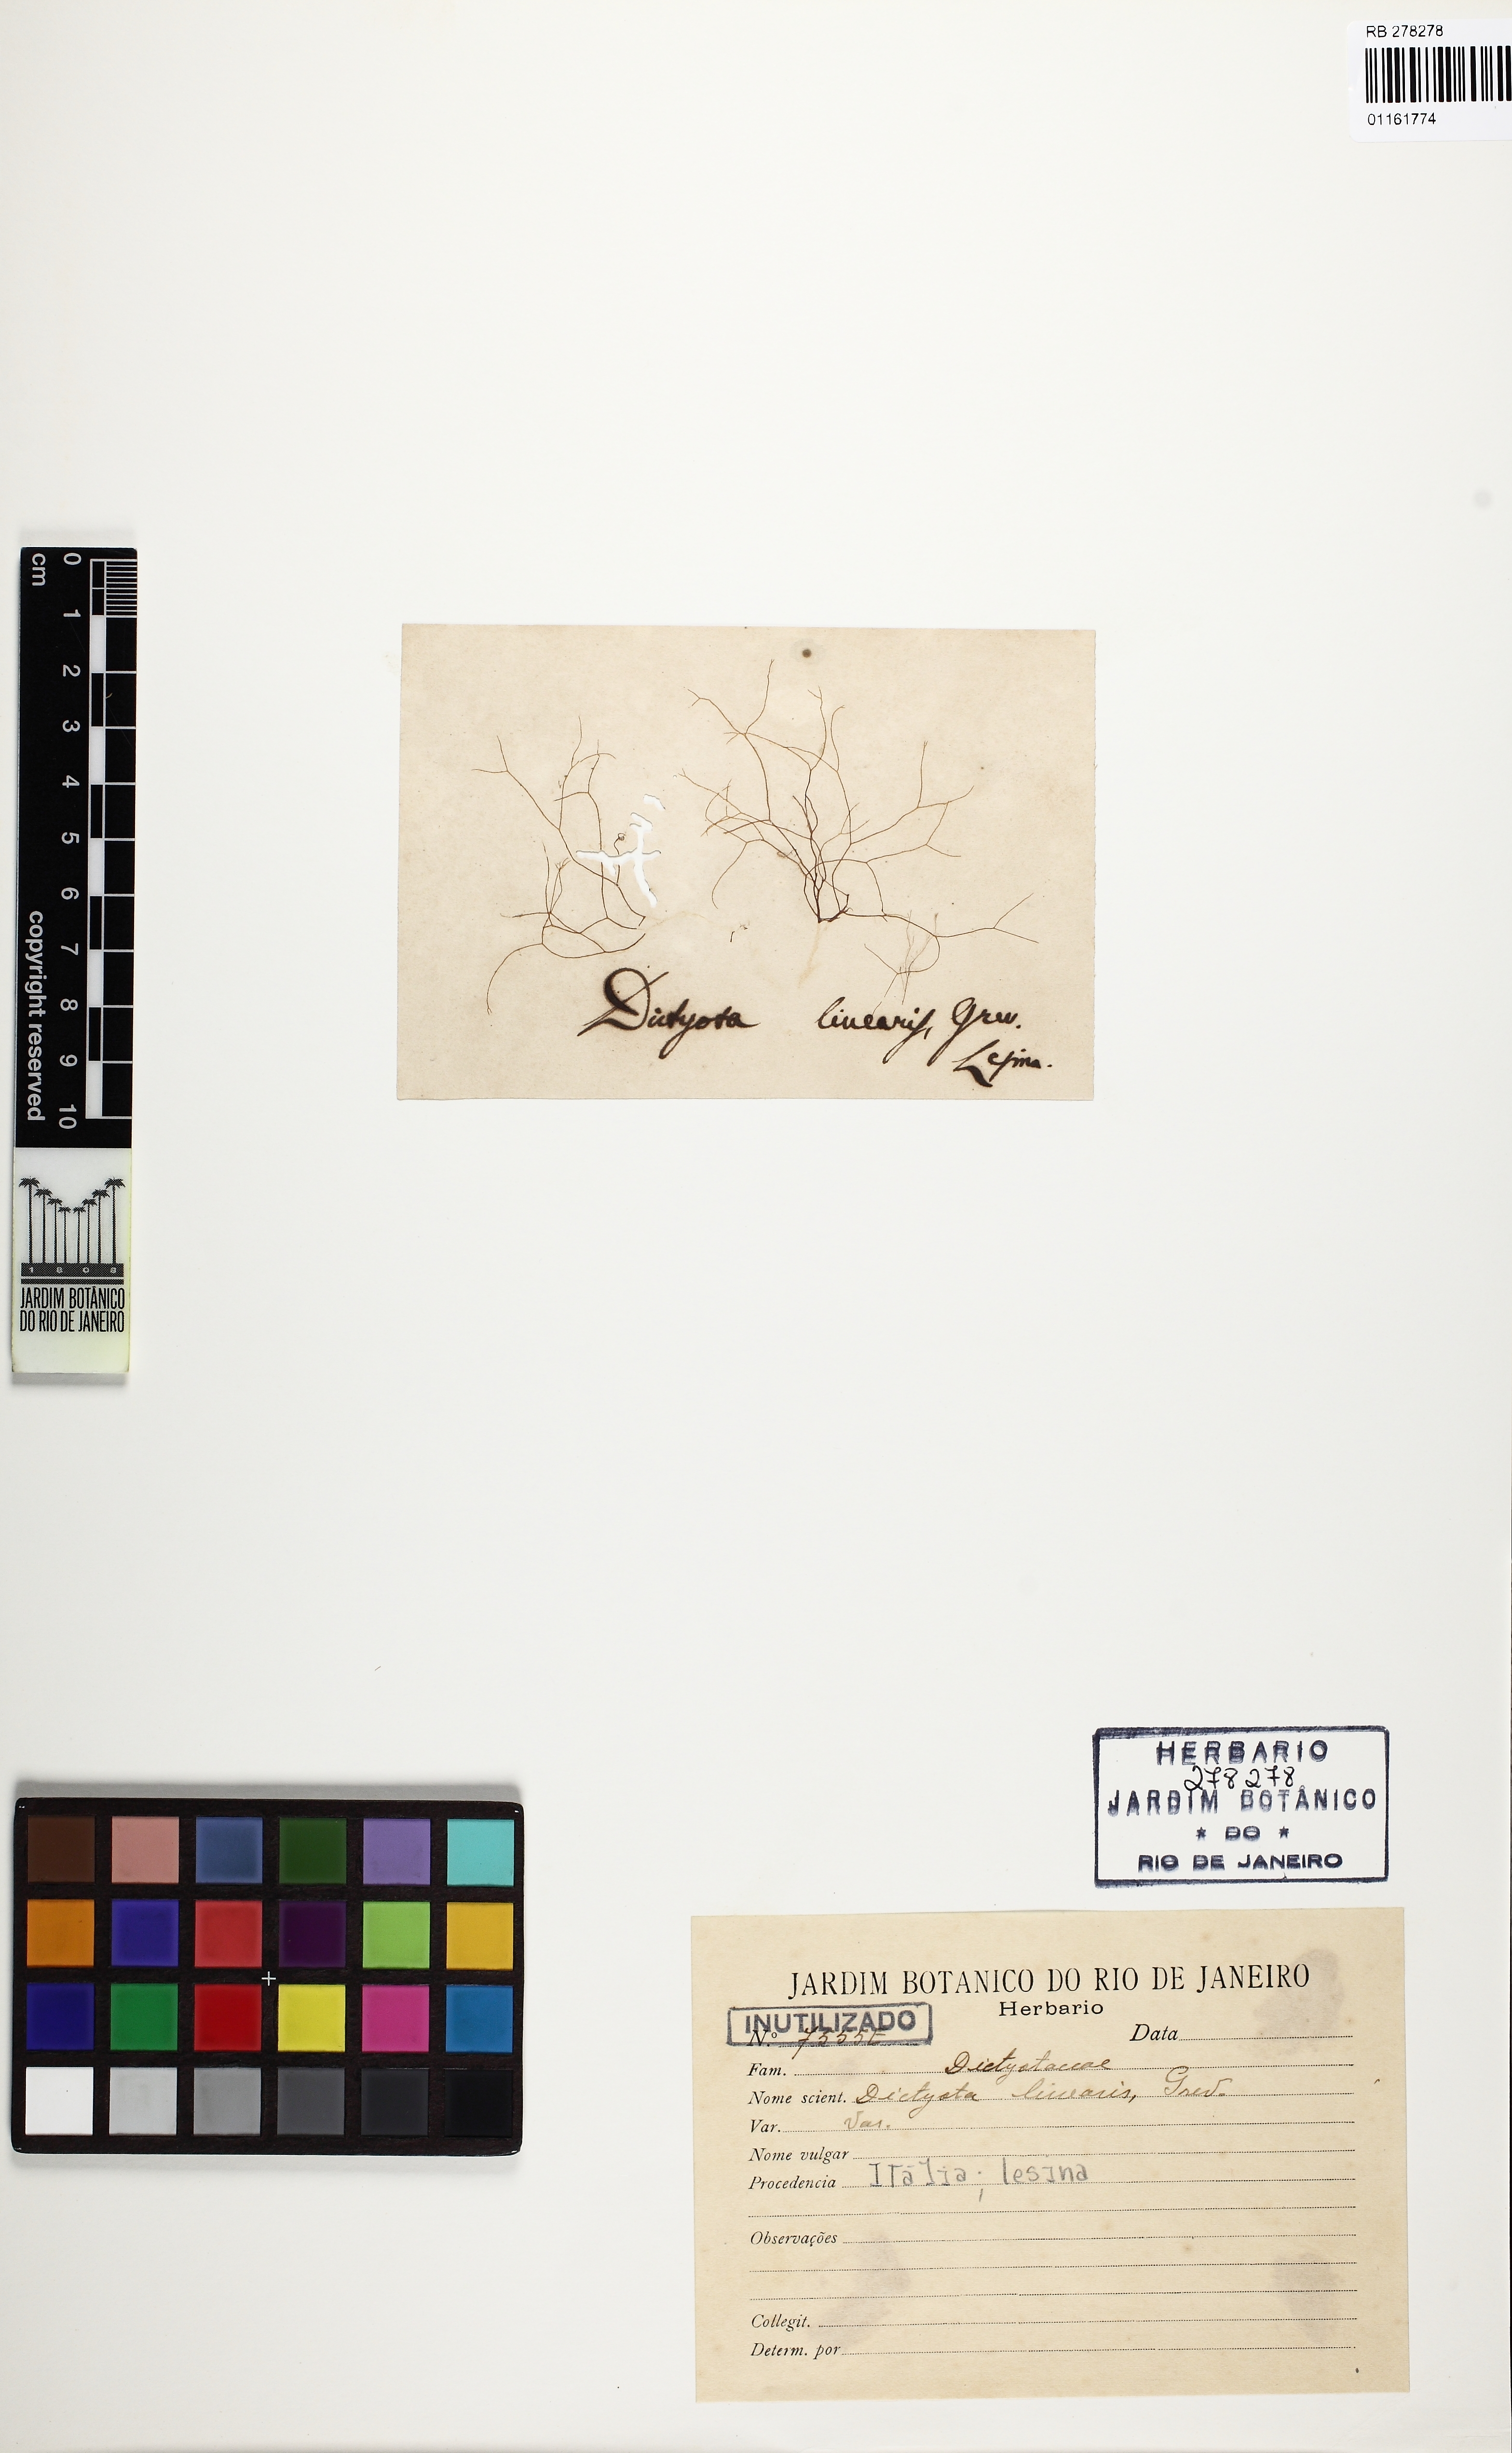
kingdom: Chromista
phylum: Ochrophyta
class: Phaeophyceae
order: Dictyotales
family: Dictyotaceae
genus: Dictyota
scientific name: Dictyota pulchella
